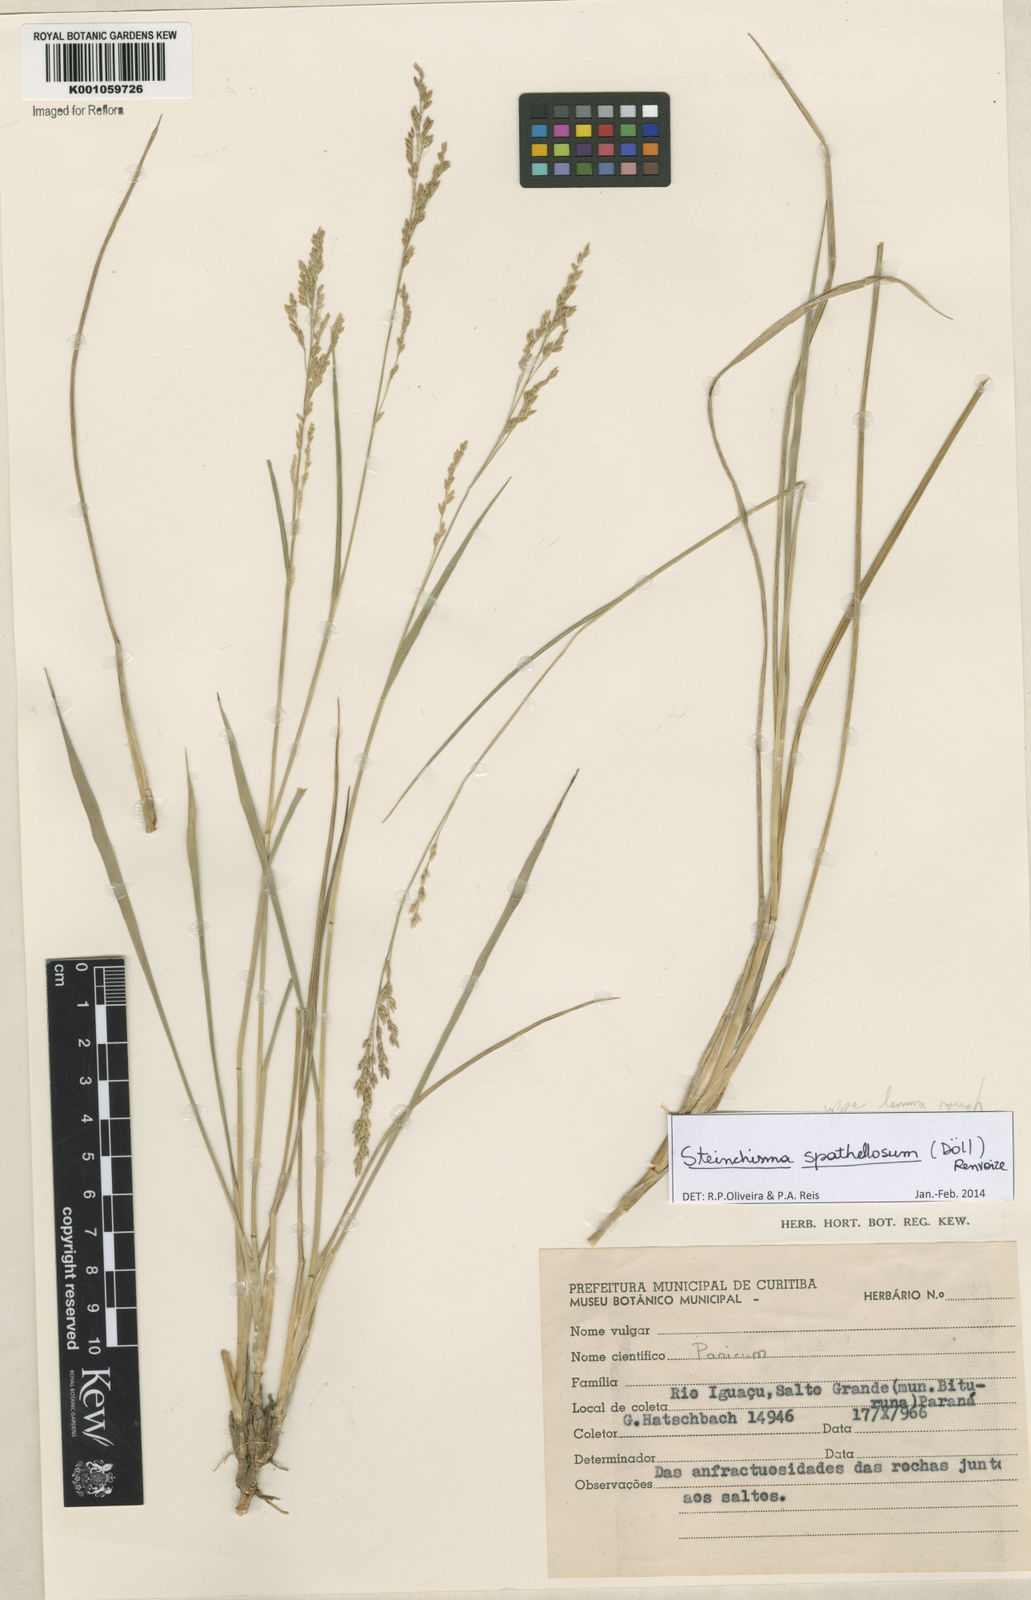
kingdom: Plantae
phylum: Tracheophyta
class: Liliopsida
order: Poales
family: Poaceae
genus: Steinchisma
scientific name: Steinchisma
